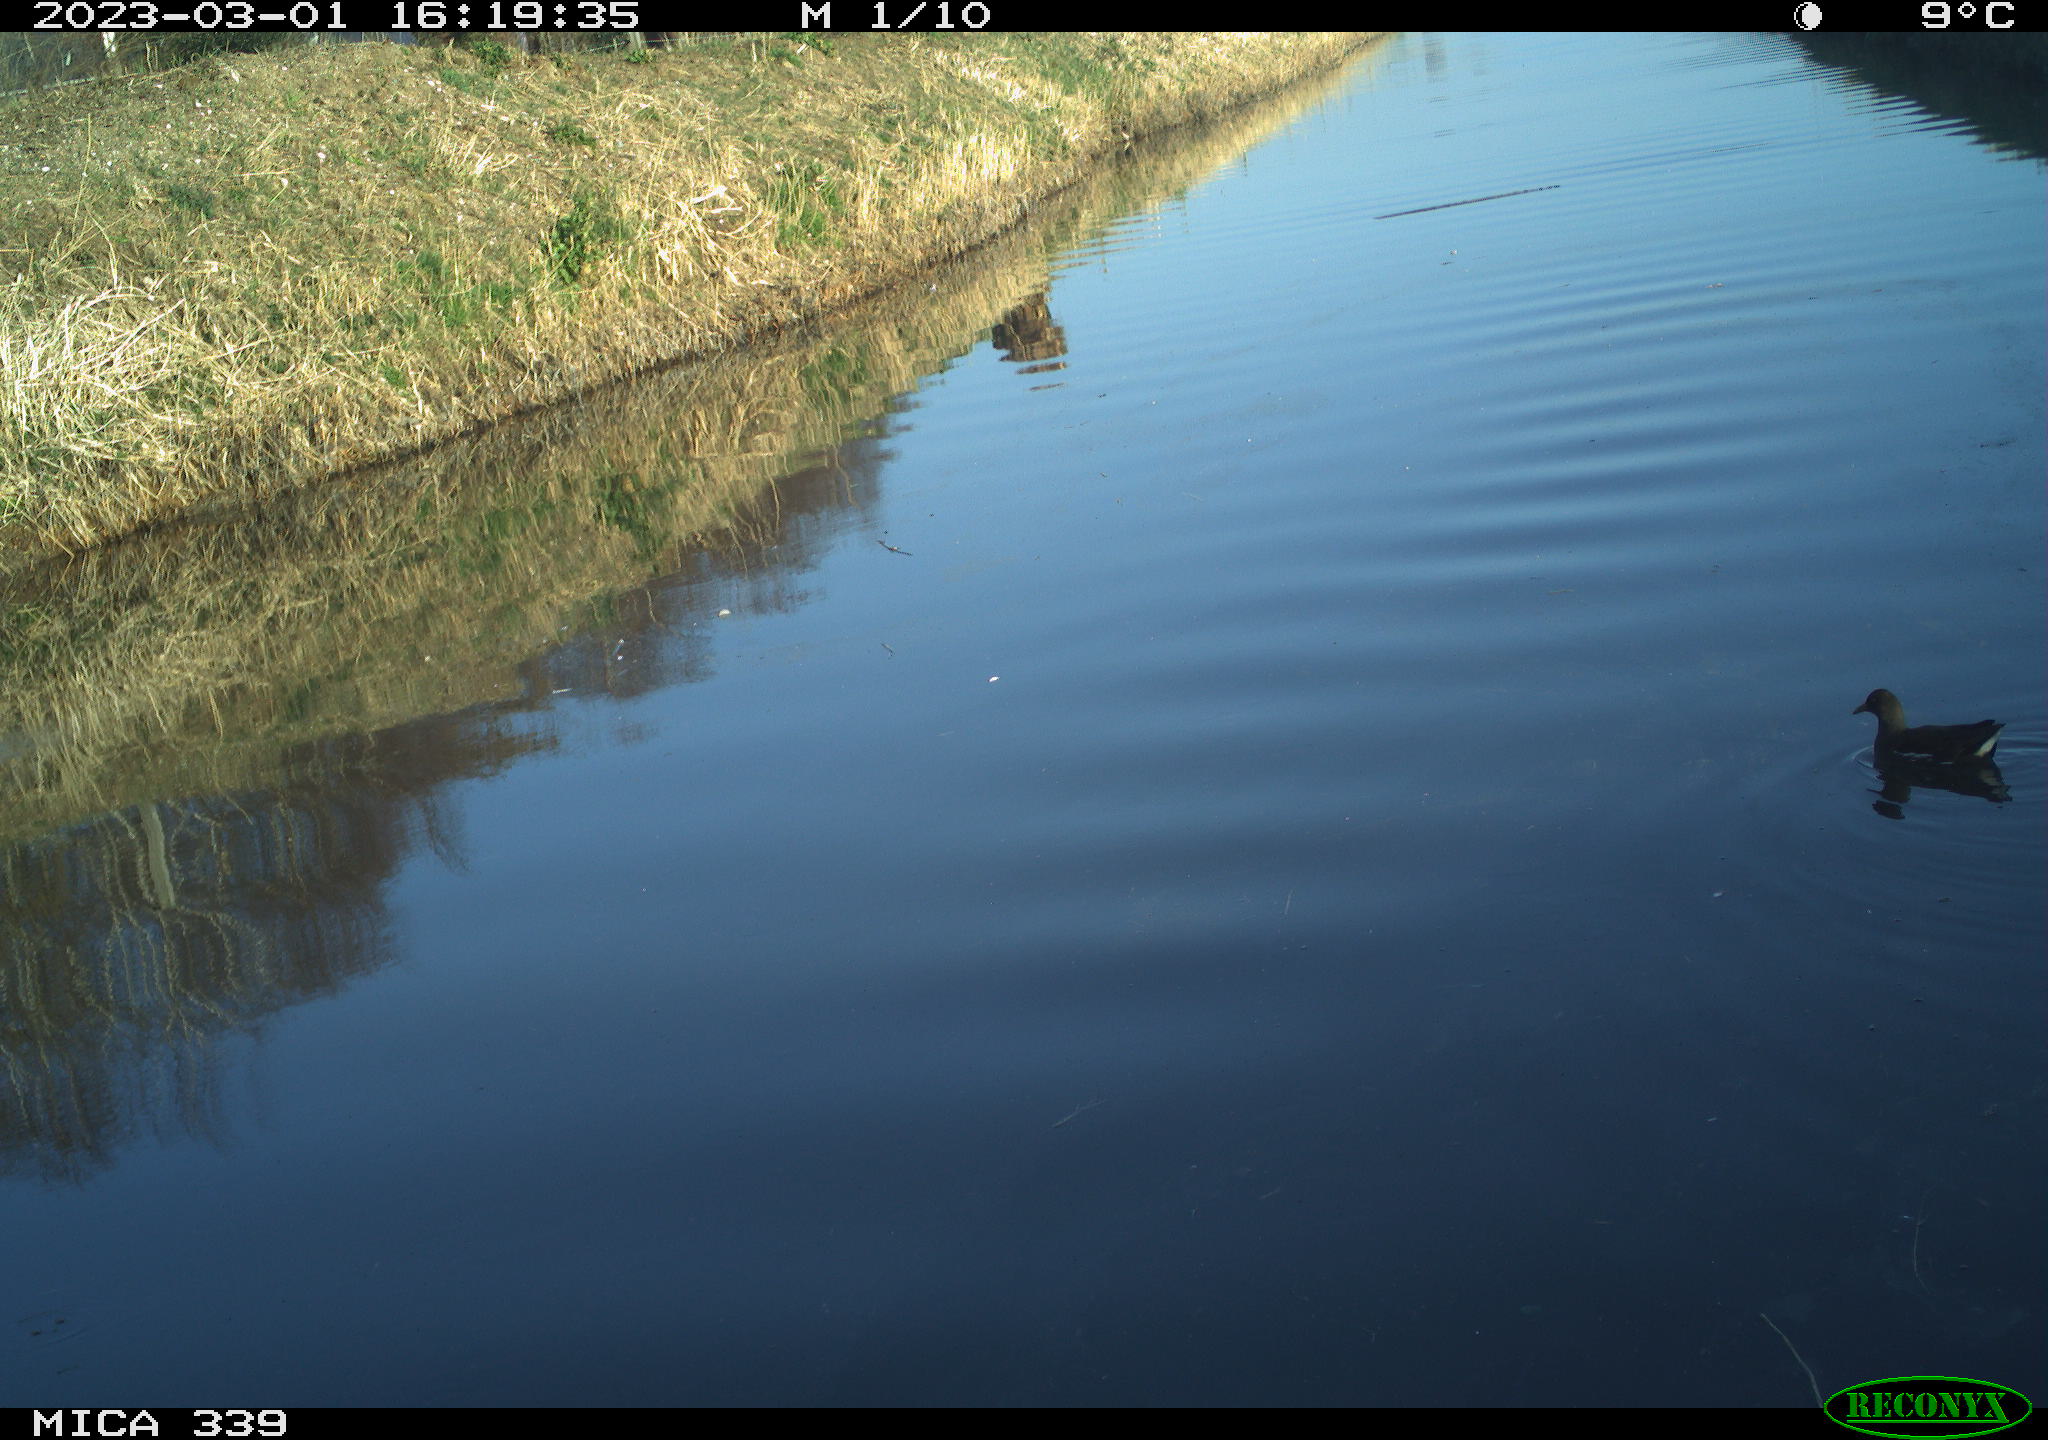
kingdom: Animalia
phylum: Chordata
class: Aves
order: Gruiformes
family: Rallidae
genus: Gallinula
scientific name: Gallinula chloropus
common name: Common moorhen
